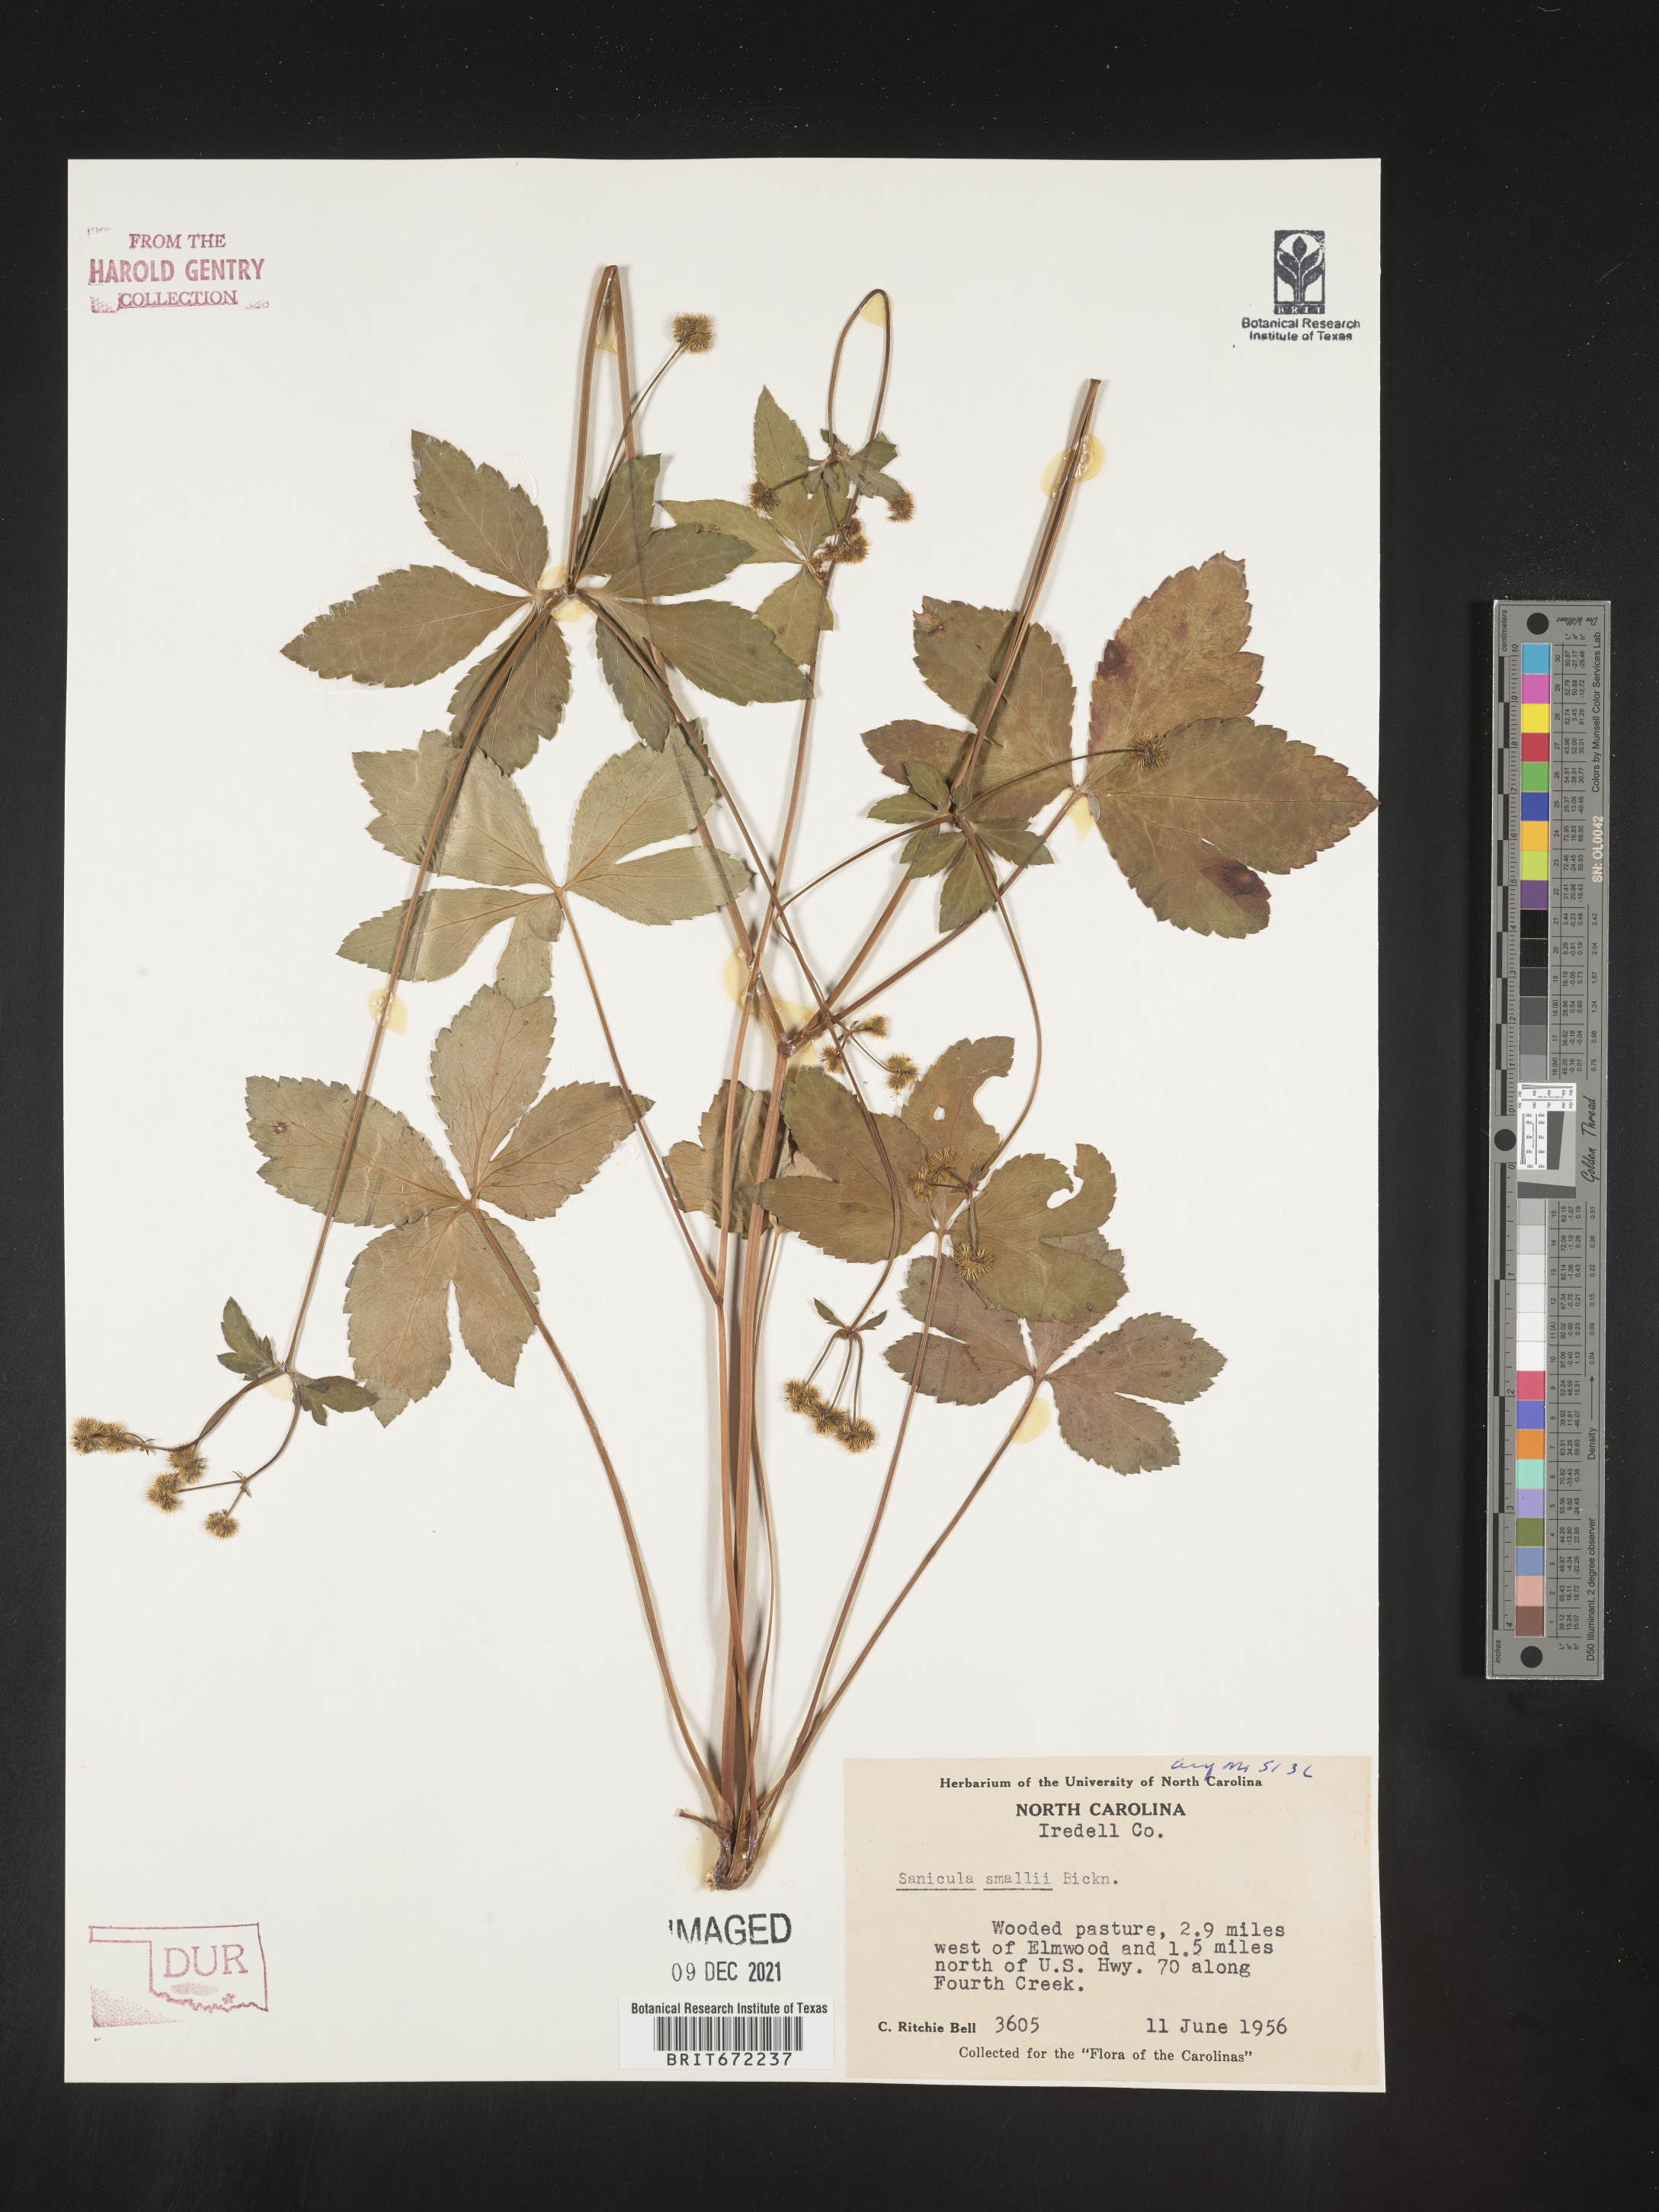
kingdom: Plantae
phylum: Tracheophyta
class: Magnoliopsida
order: Apiales
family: Apiaceae
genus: Sanicula
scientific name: Sanicula
